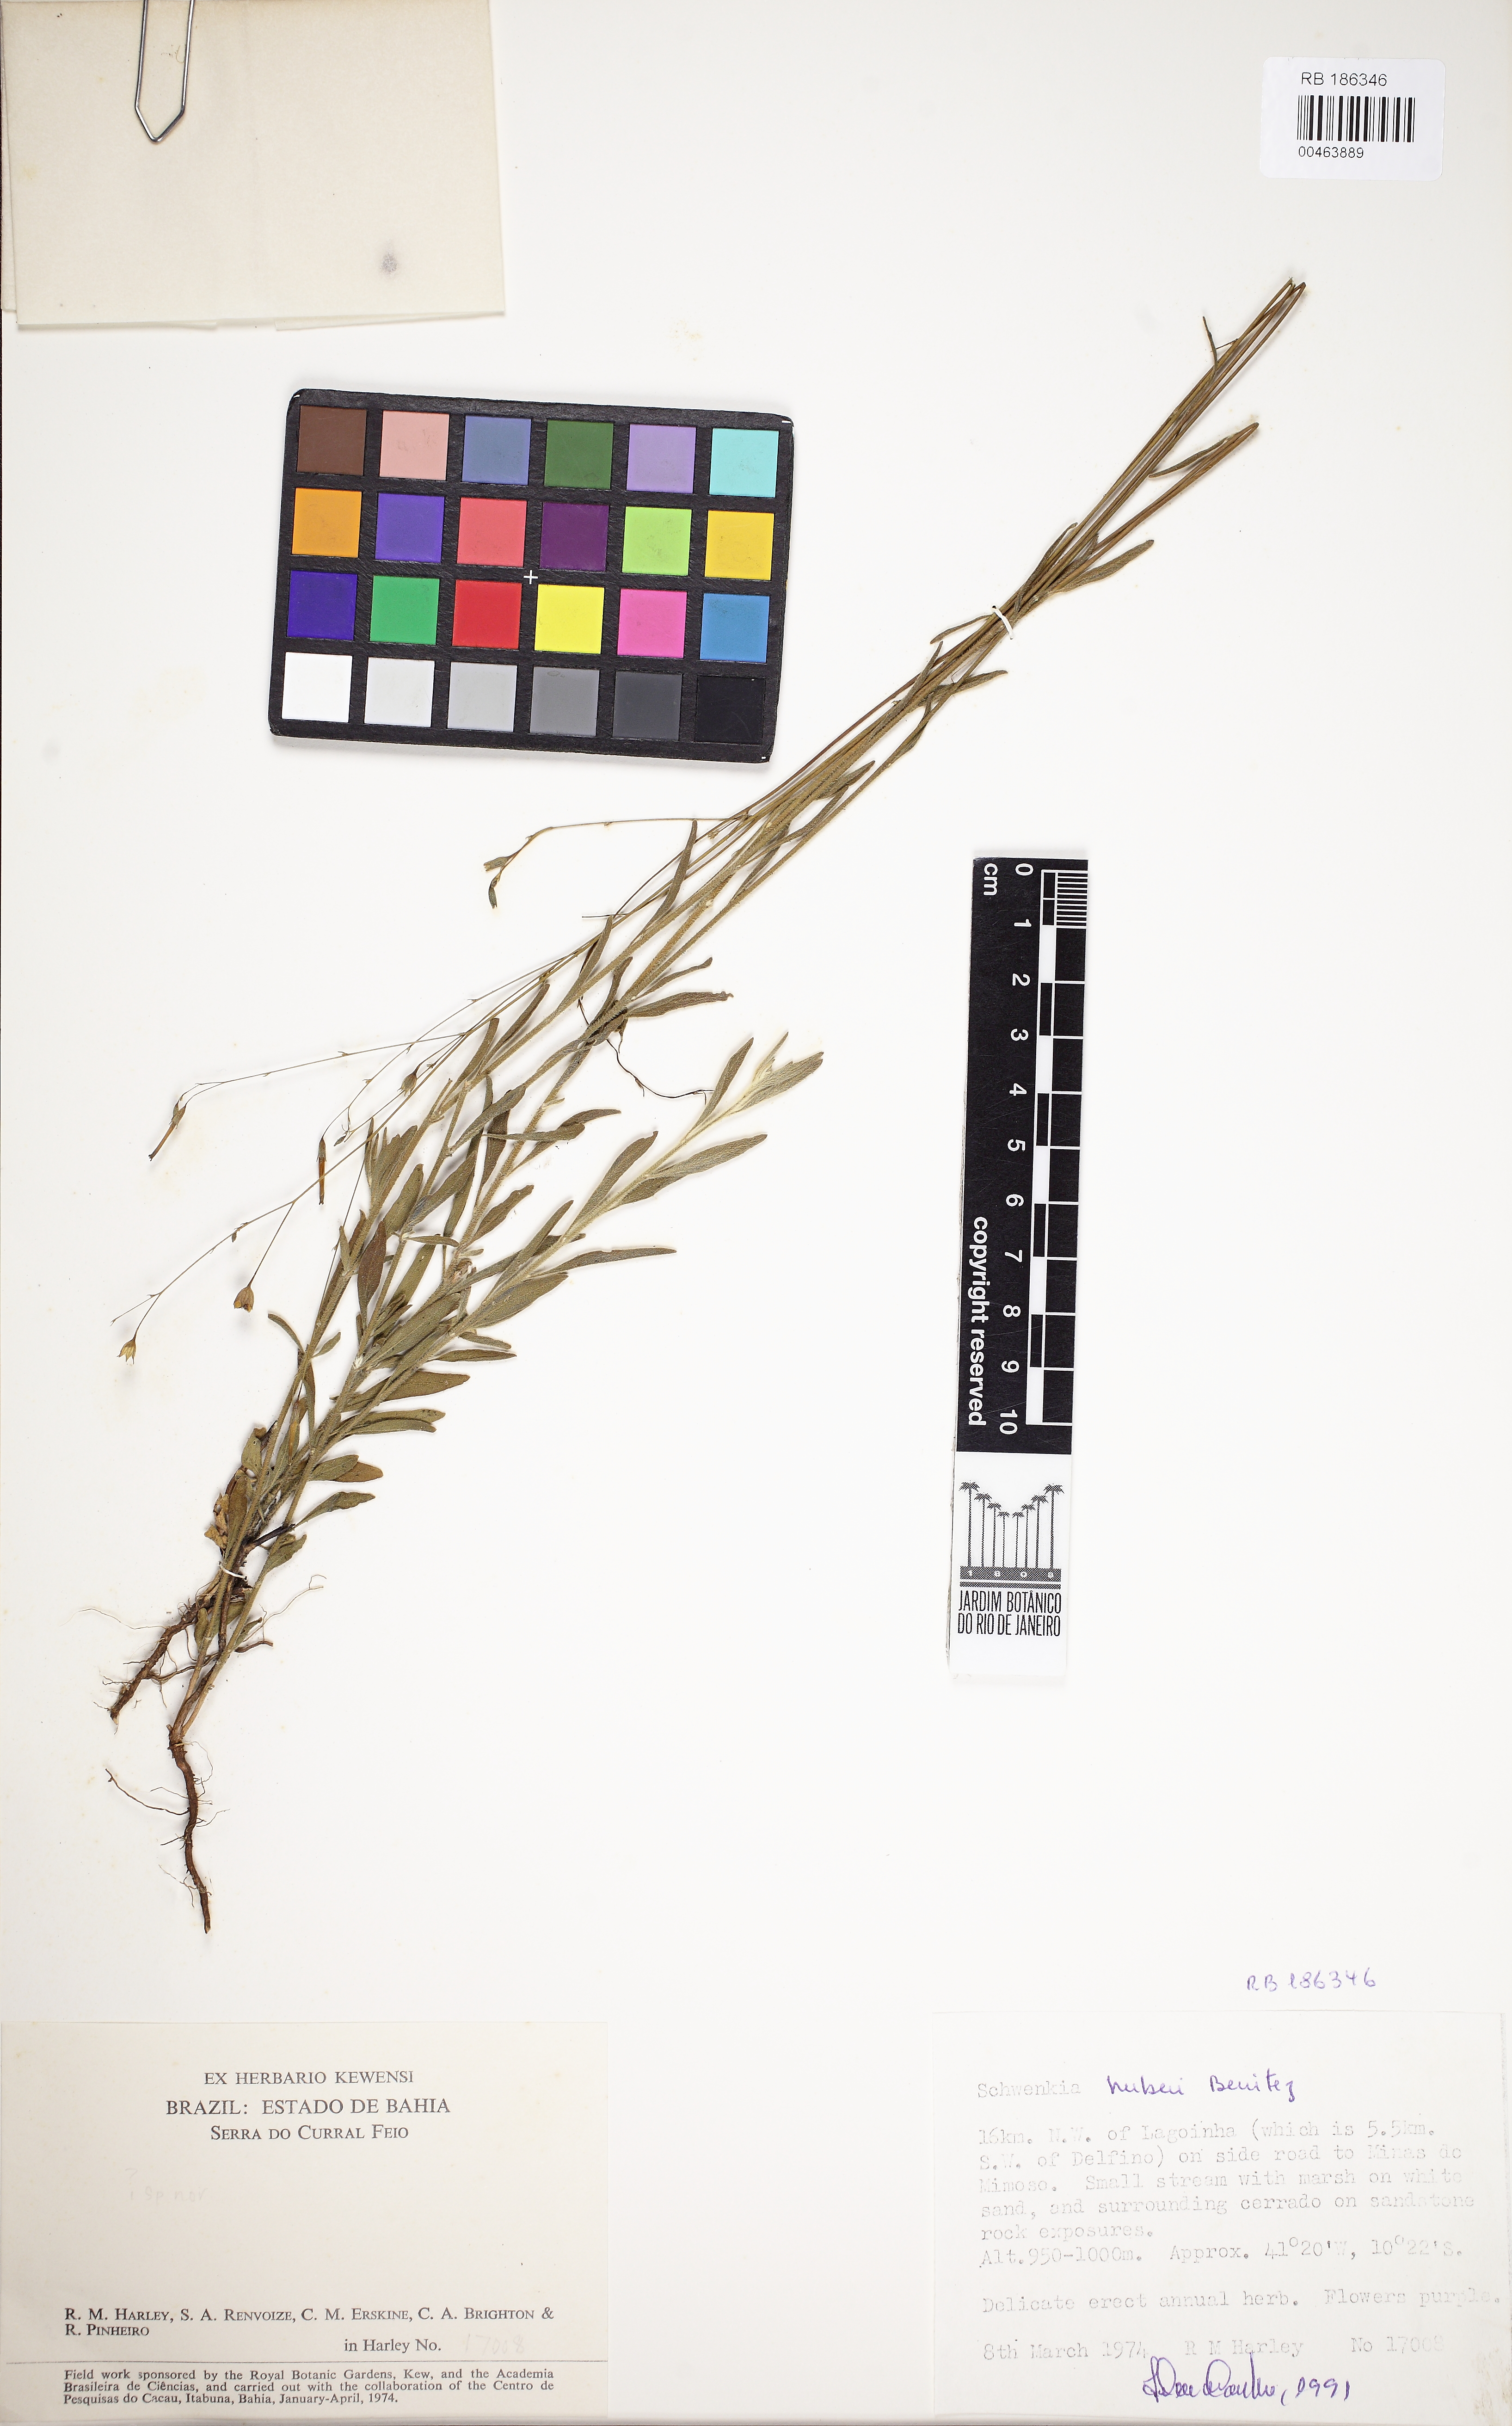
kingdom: Plantae
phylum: Tracheophyta
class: Magnoliopsida
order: Solanales
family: Solanaceae
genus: Schwenckia
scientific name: Schwenckia huberi
